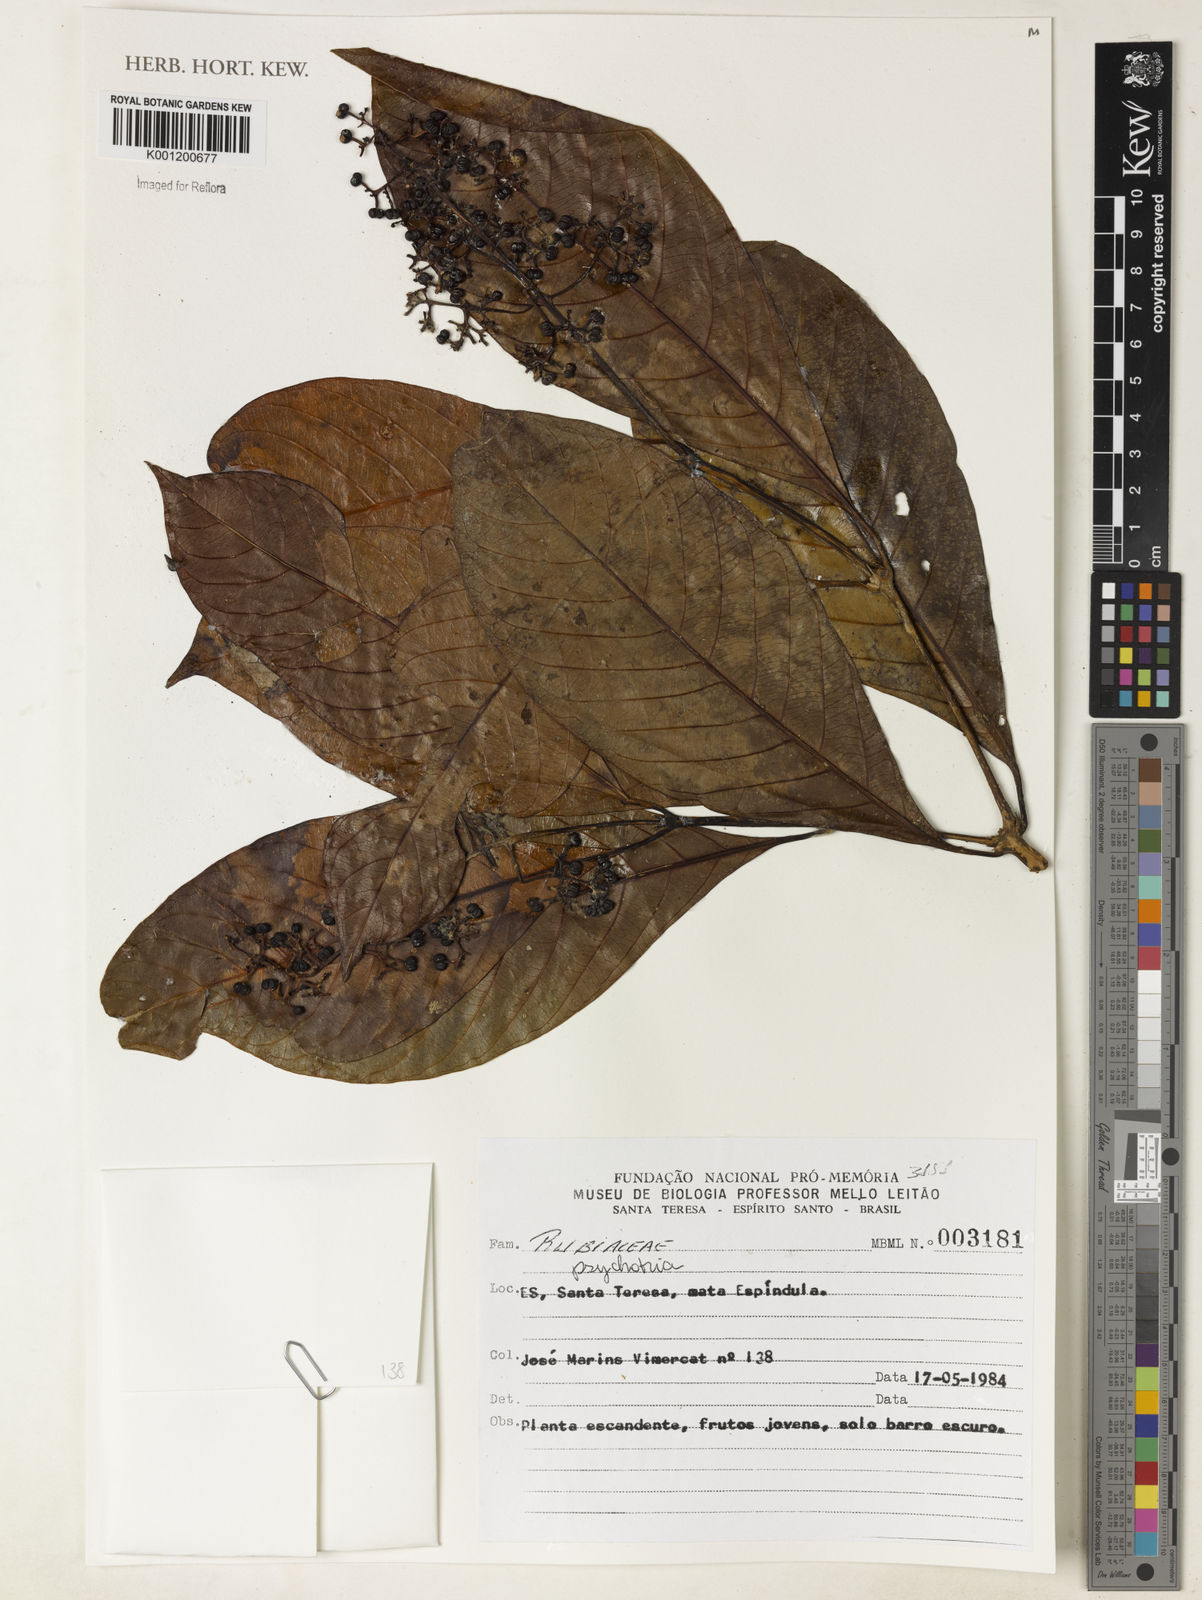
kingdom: Plantae
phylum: Tracheophyta
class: Magnoliopsida
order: Gentianales
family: Rubiaceae
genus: Psychotria
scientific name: Psychotria
